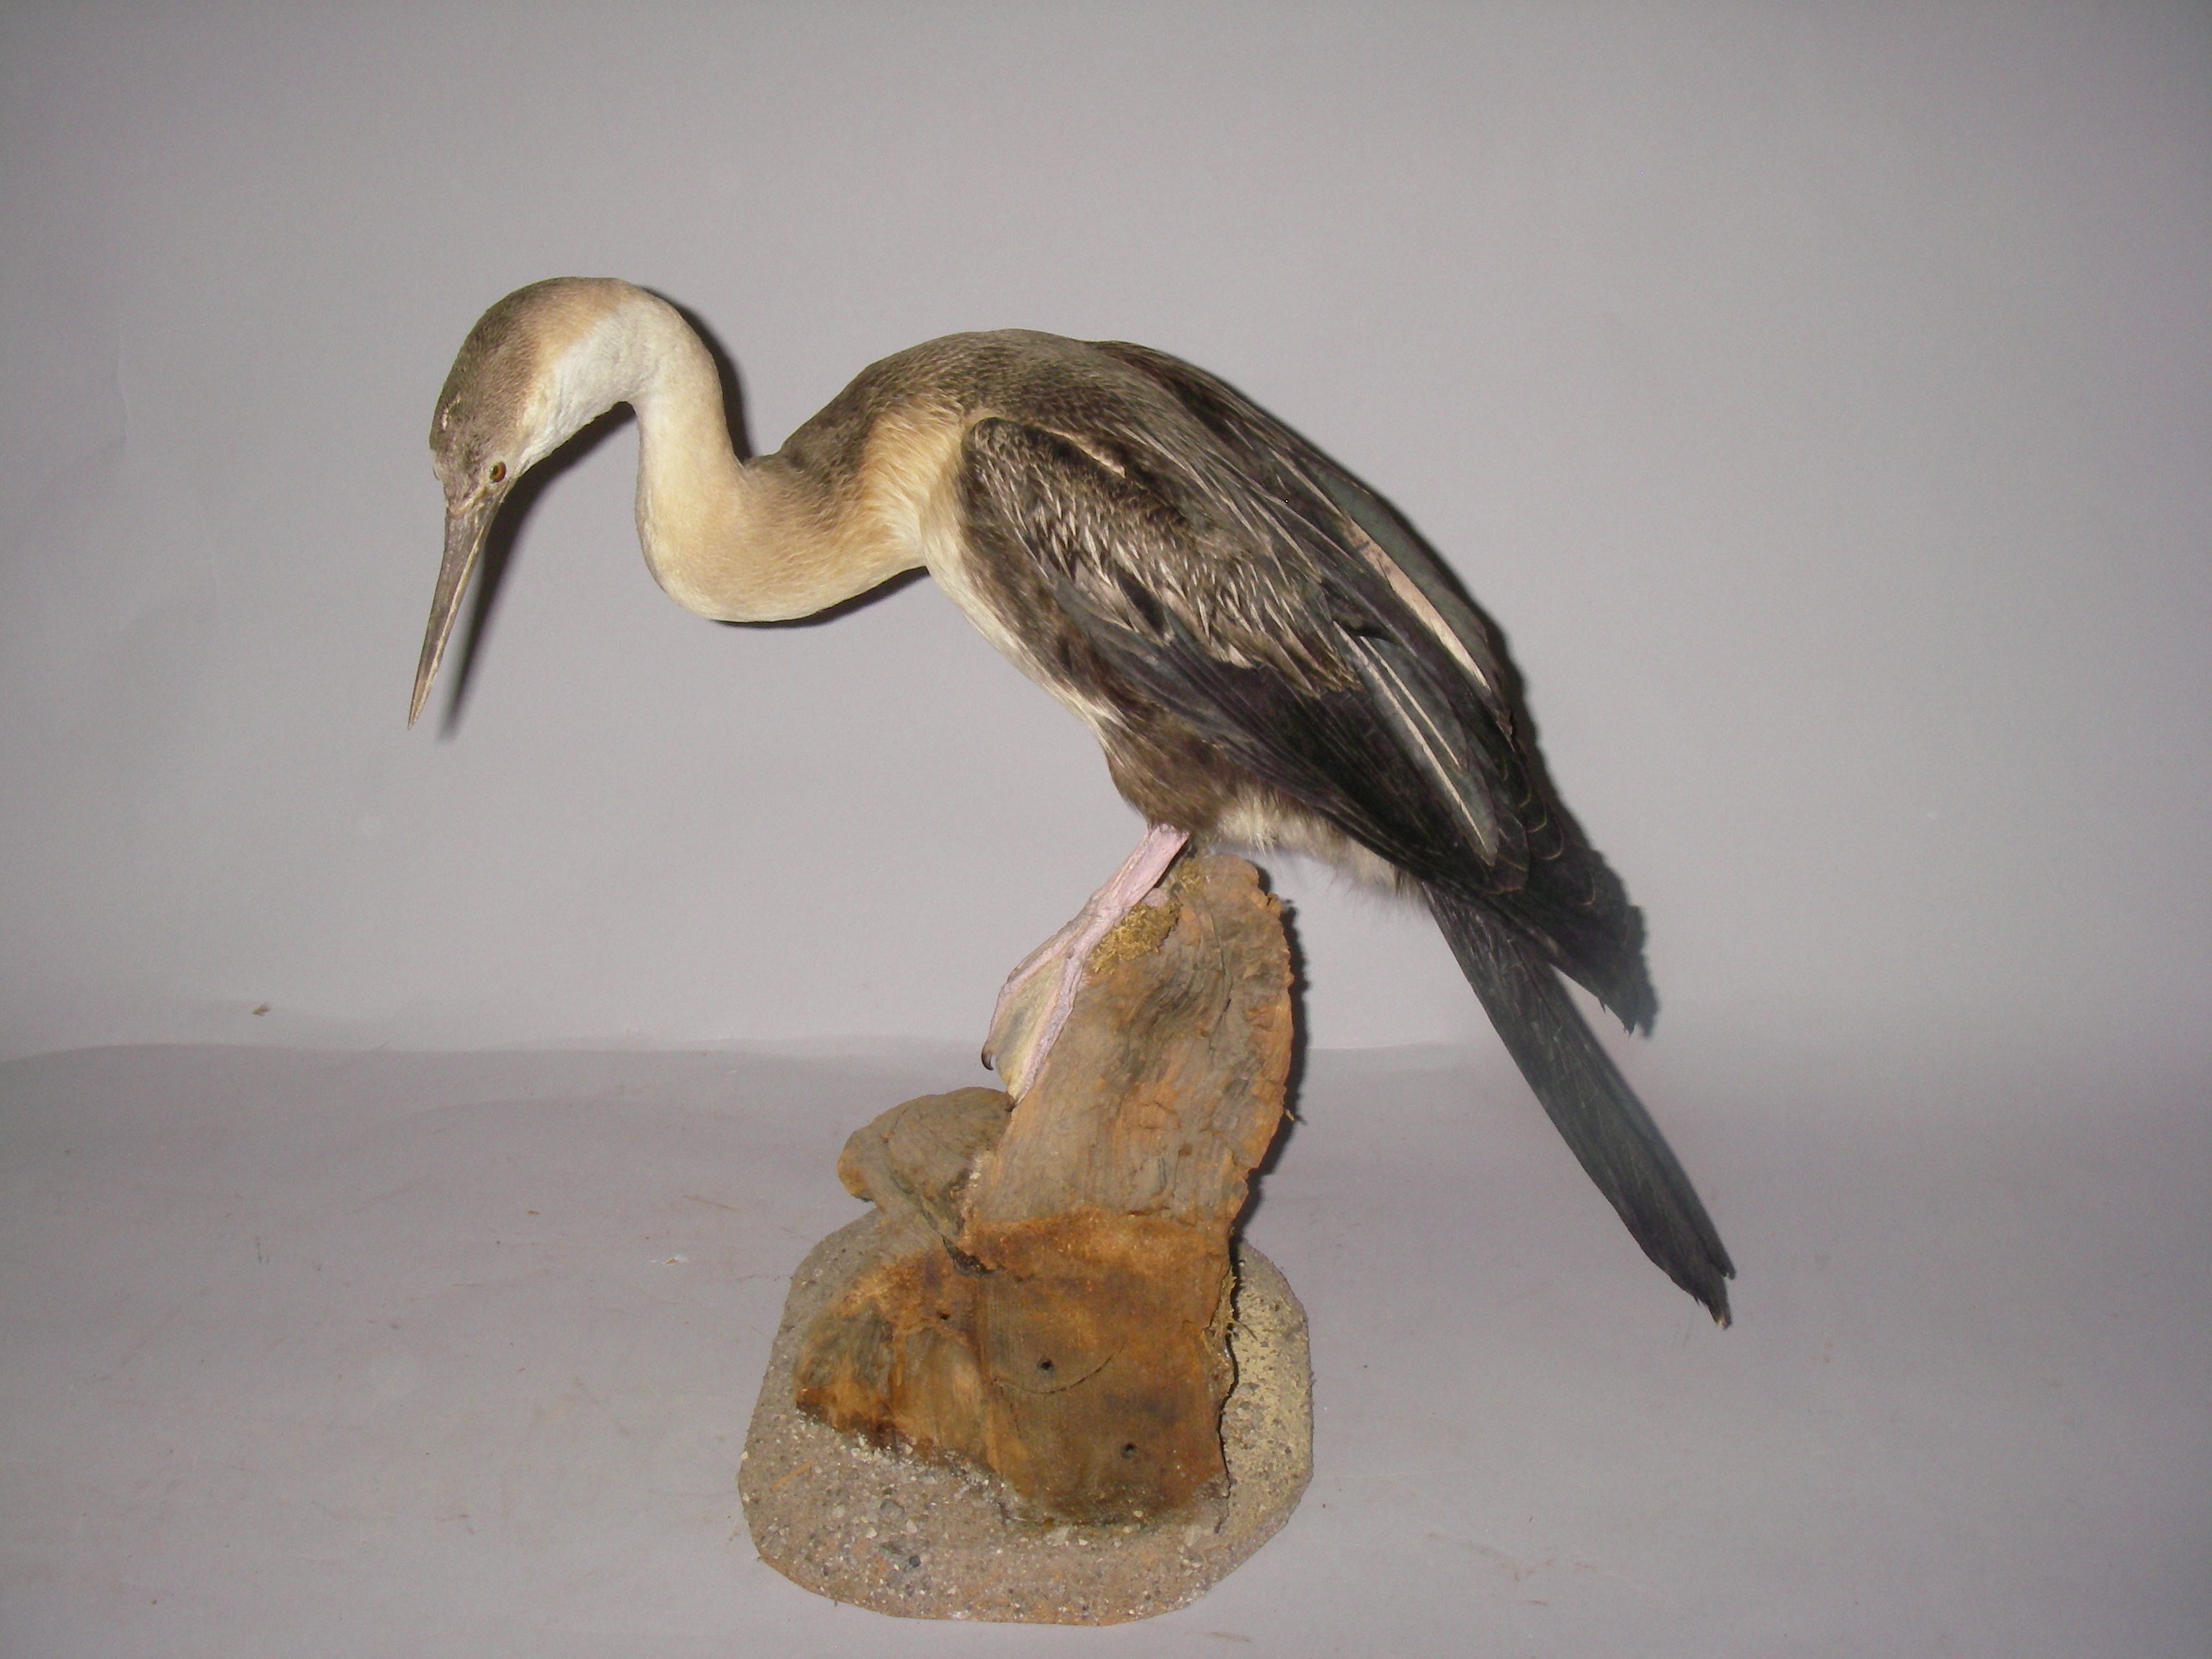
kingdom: Animalia
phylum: Chordata
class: Aves
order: Suliformes
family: Anhingidae
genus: Anhinga
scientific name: Anhinga rufa
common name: African darter
